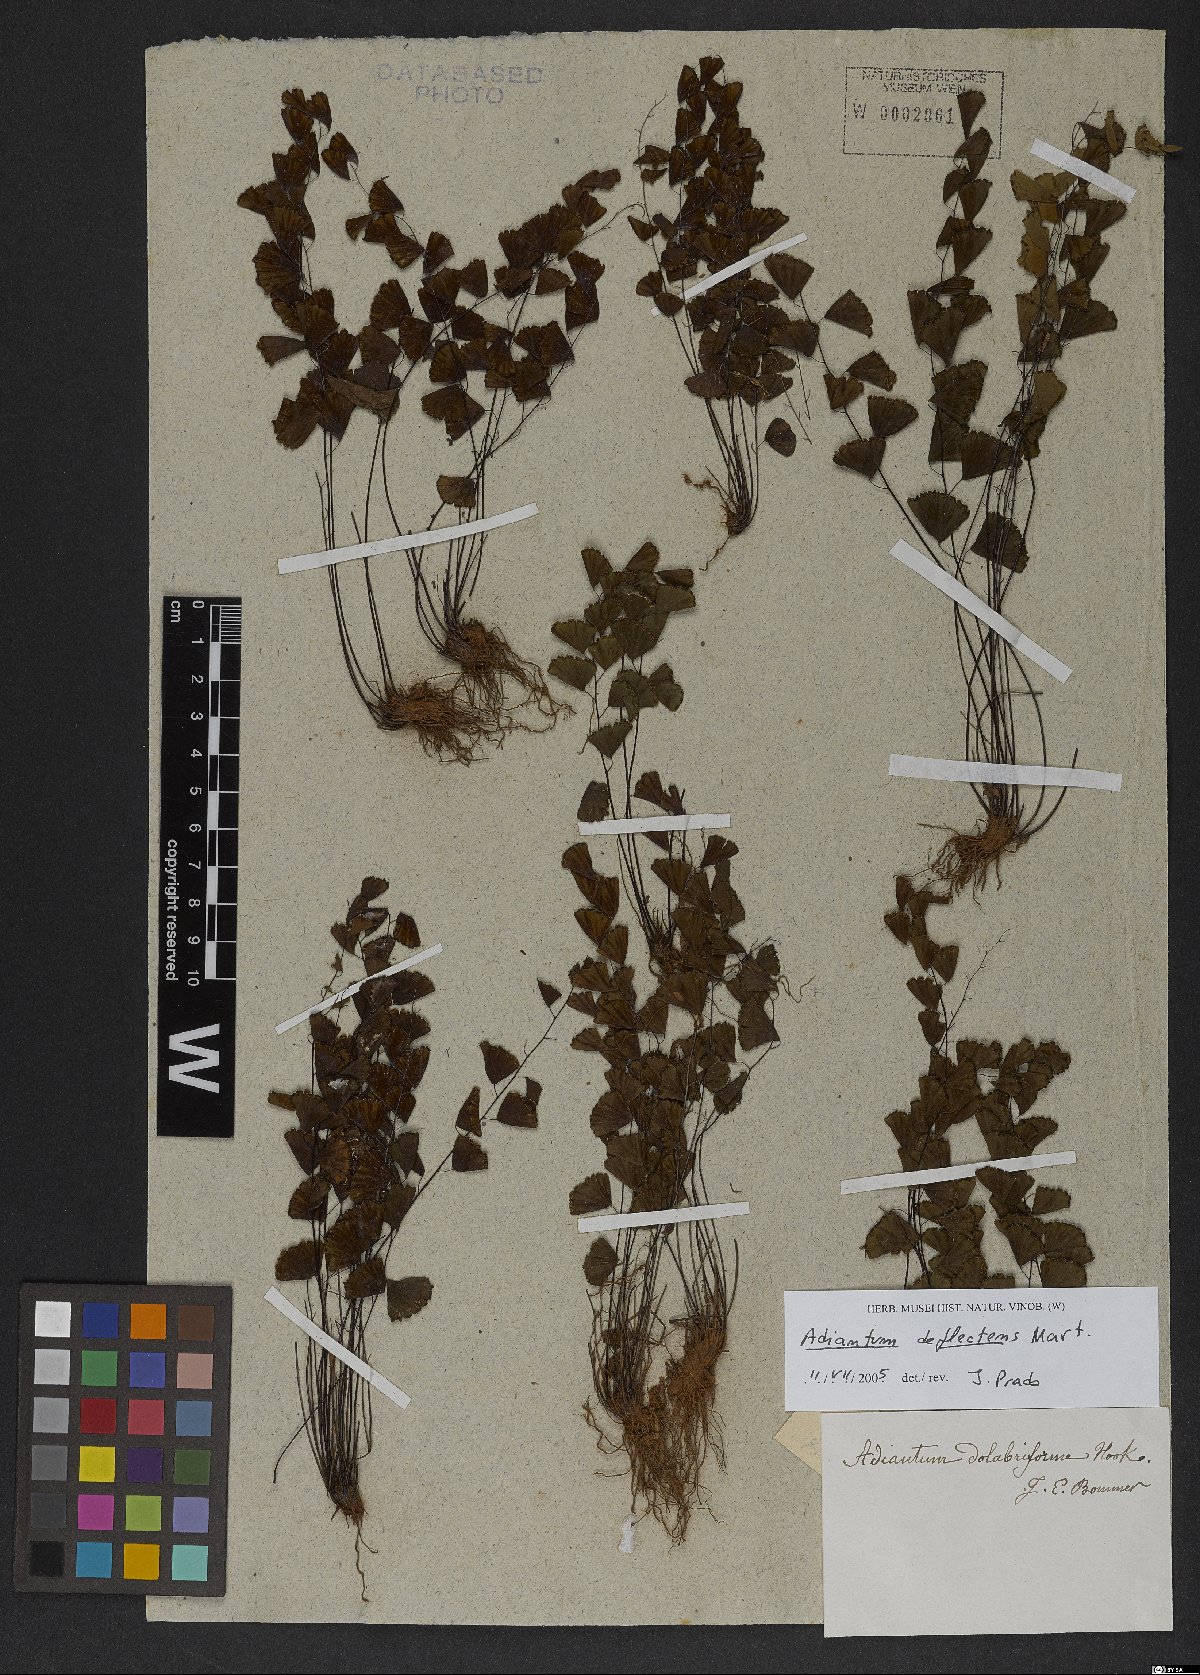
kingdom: Plantae
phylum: Tracheophyta
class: Polypodiopsida
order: Polypodiales
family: Pteridaceae
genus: Adiantum
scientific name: Adiantum deflectens
